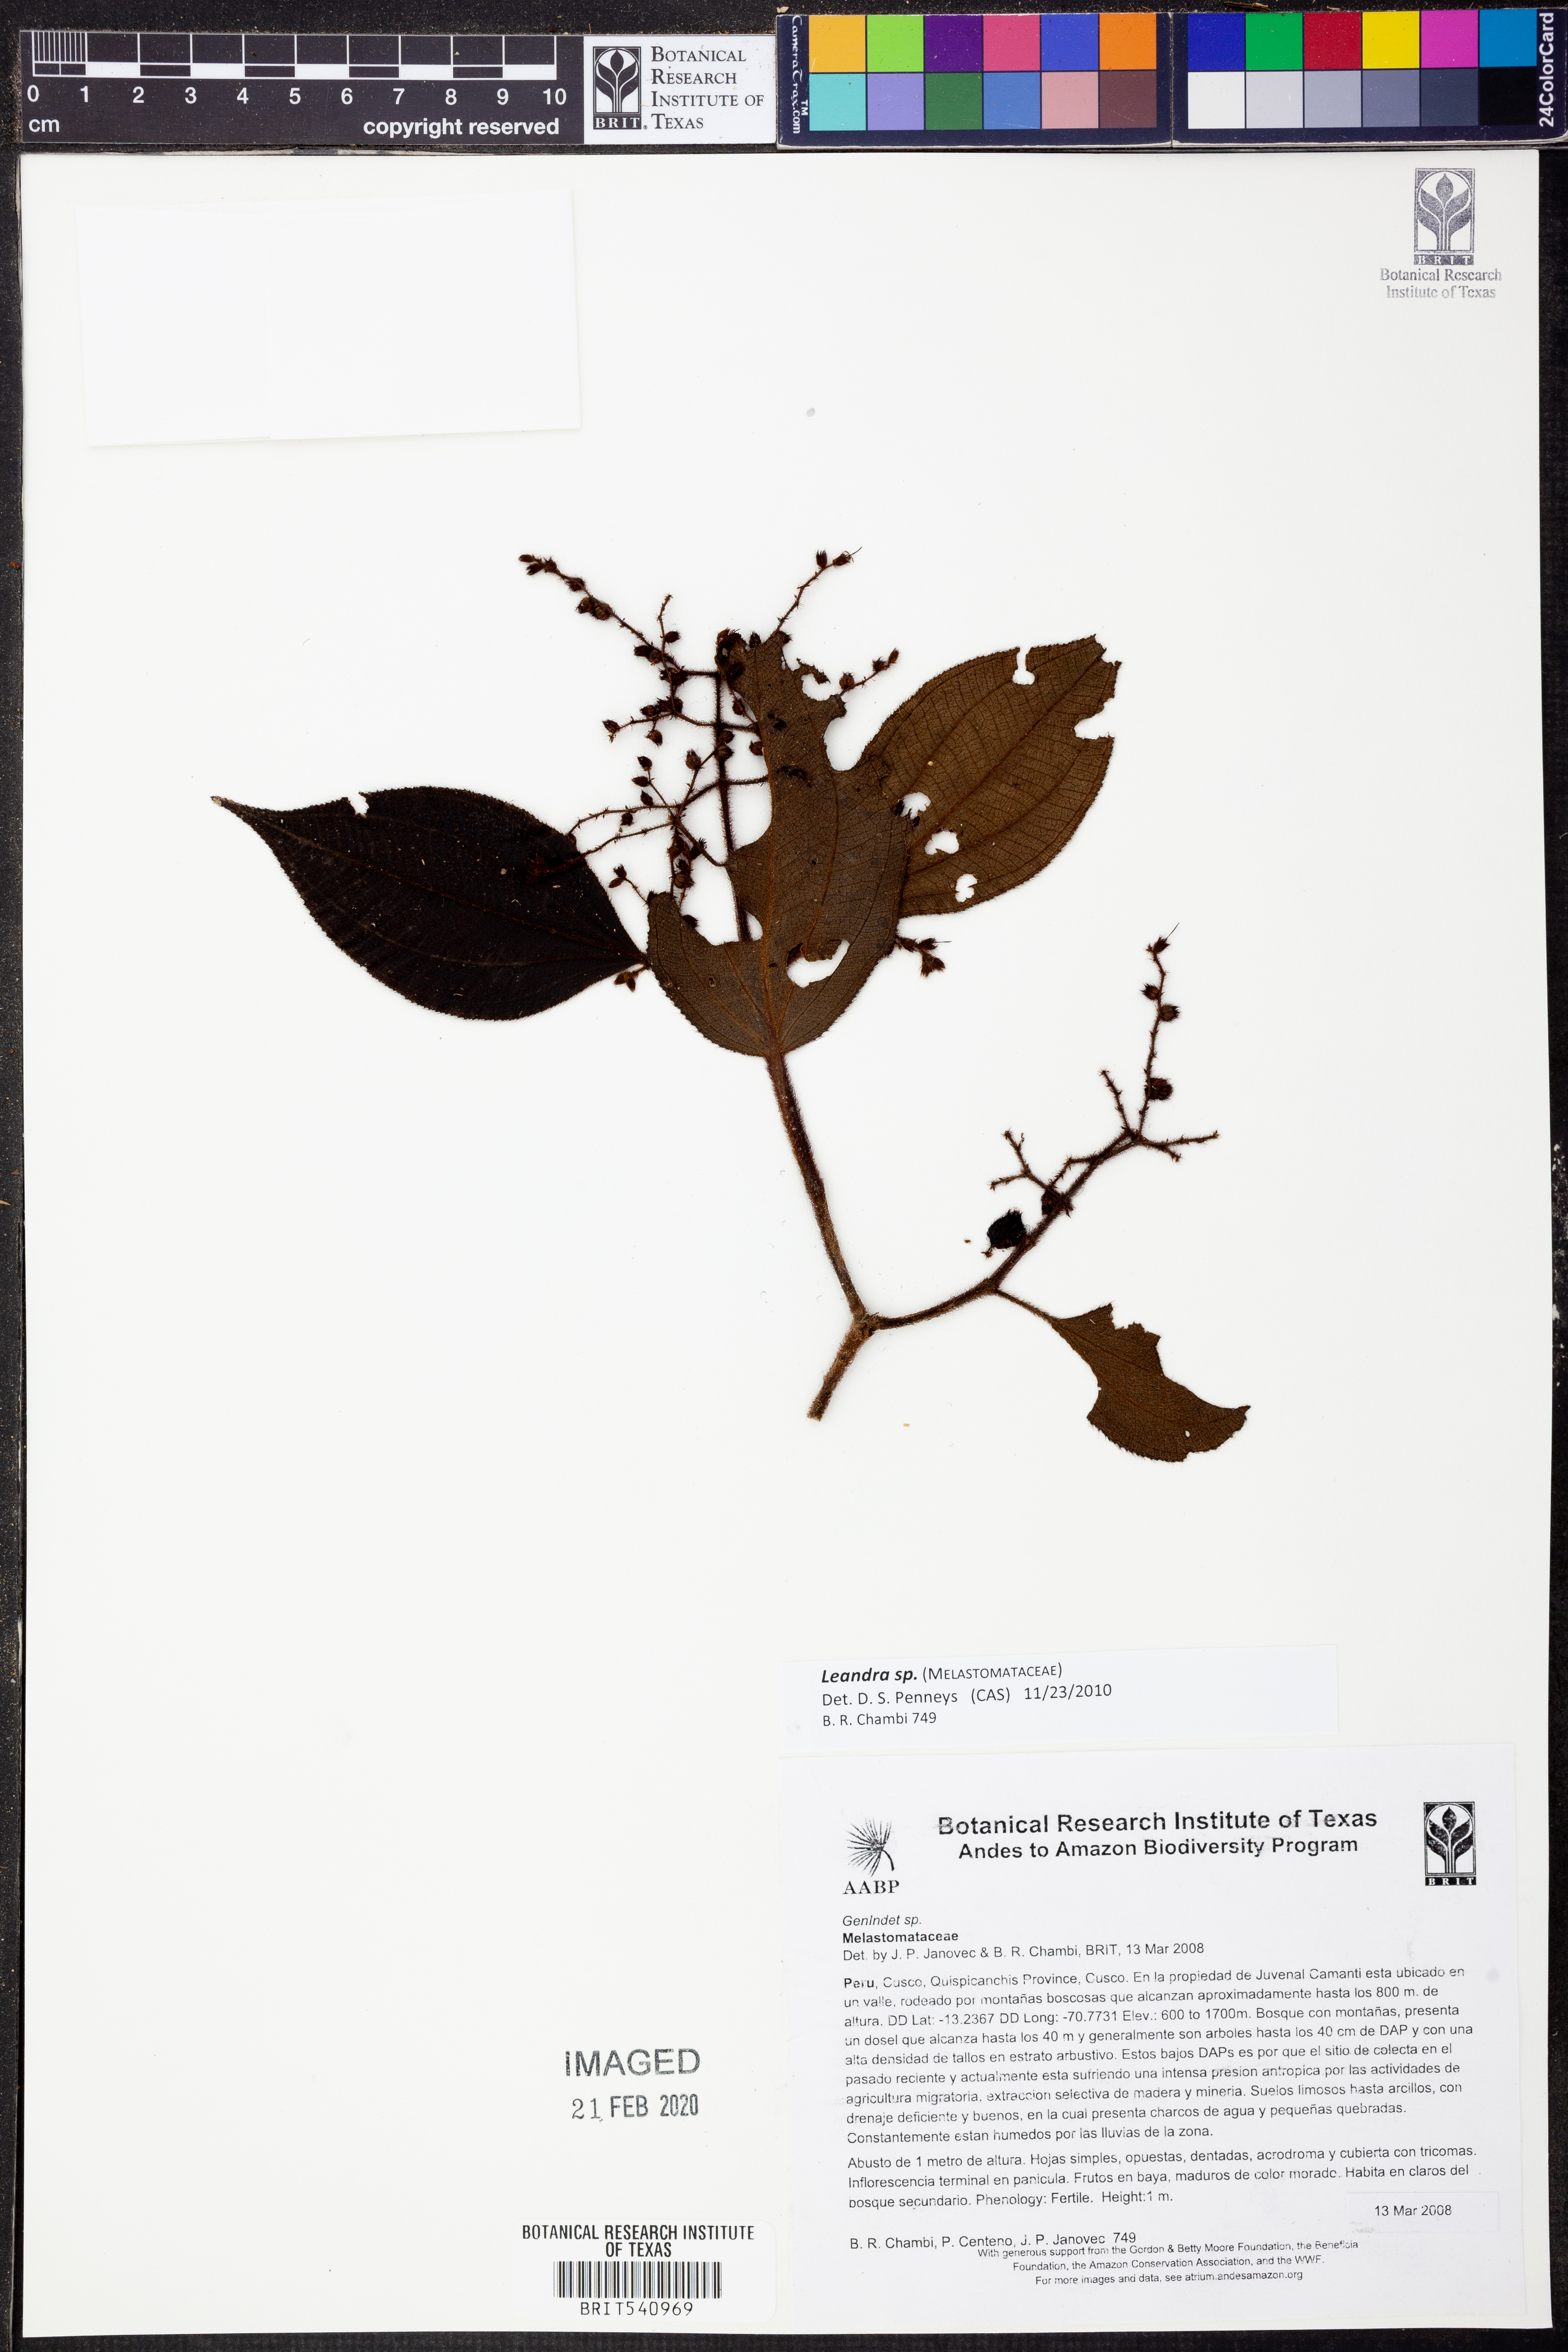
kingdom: Plantae
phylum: Tracheophyta
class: Magnoliopsida
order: Myrtales
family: Melastomataceae
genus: Miconia
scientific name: Miconia
